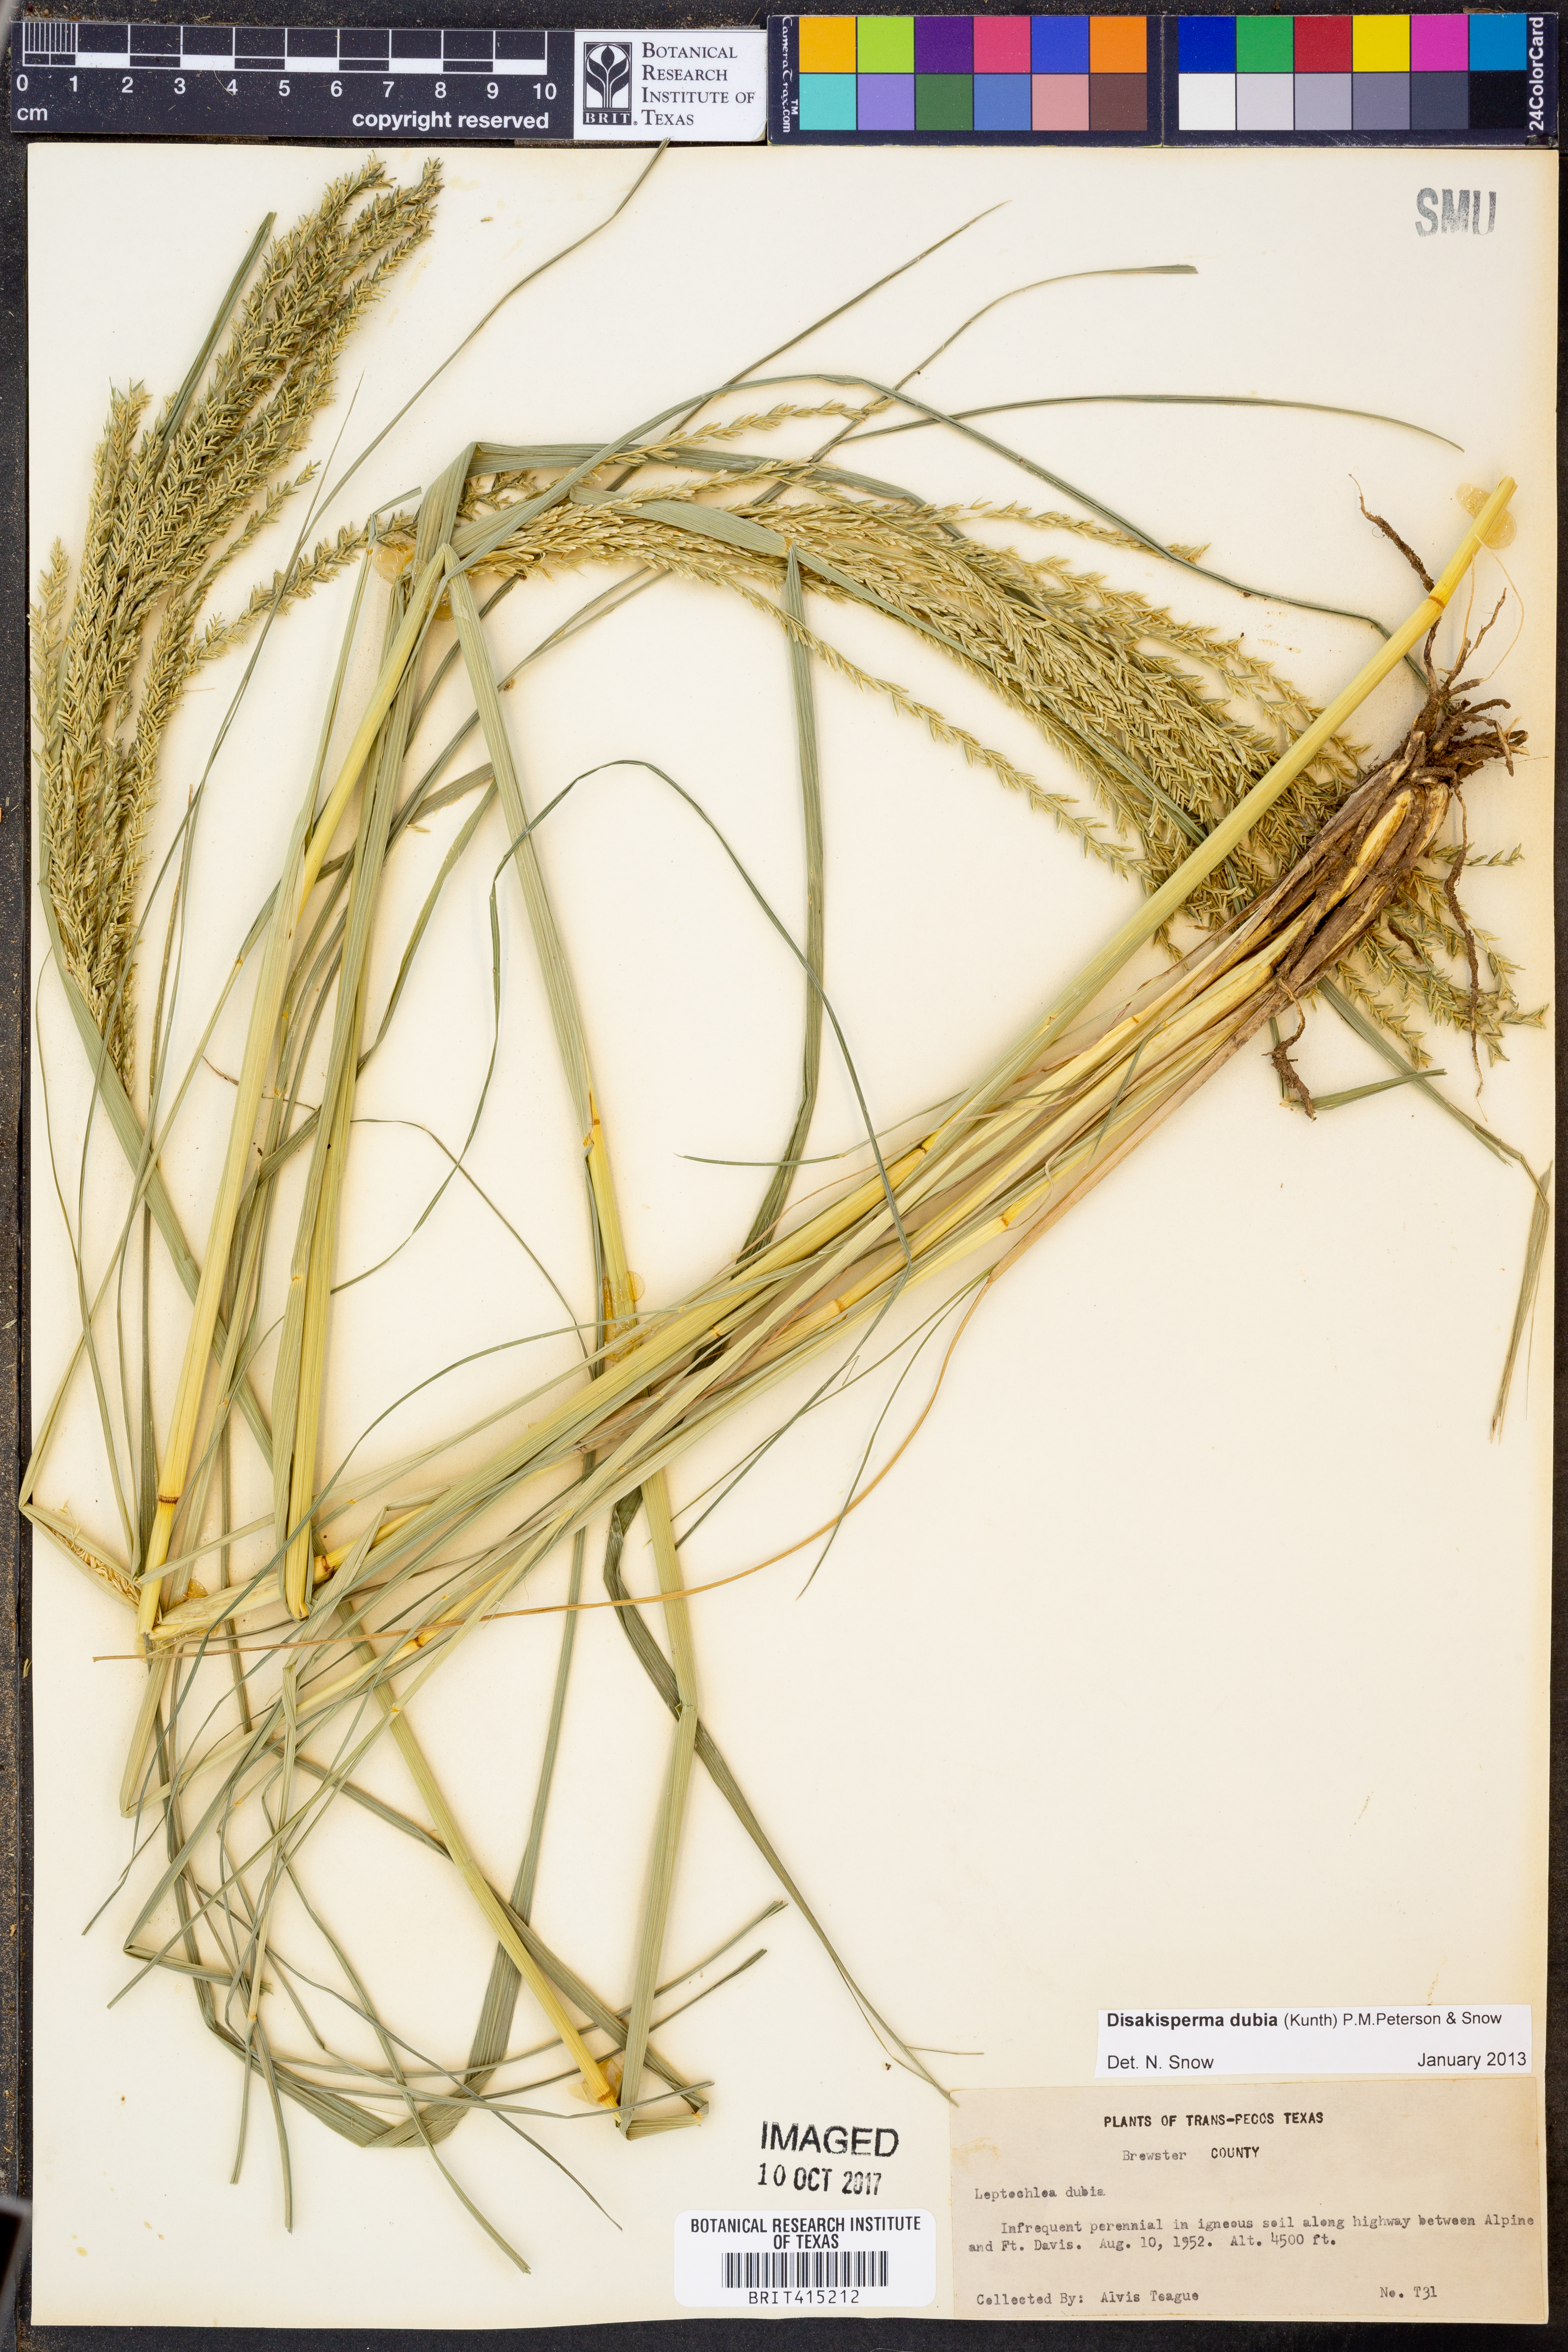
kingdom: Plantae
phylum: Tracheophyta
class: Liliopsida
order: Poales
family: Poaceae
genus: Disakisperma
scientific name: Disakisperma dubium
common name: Green sprangletop
